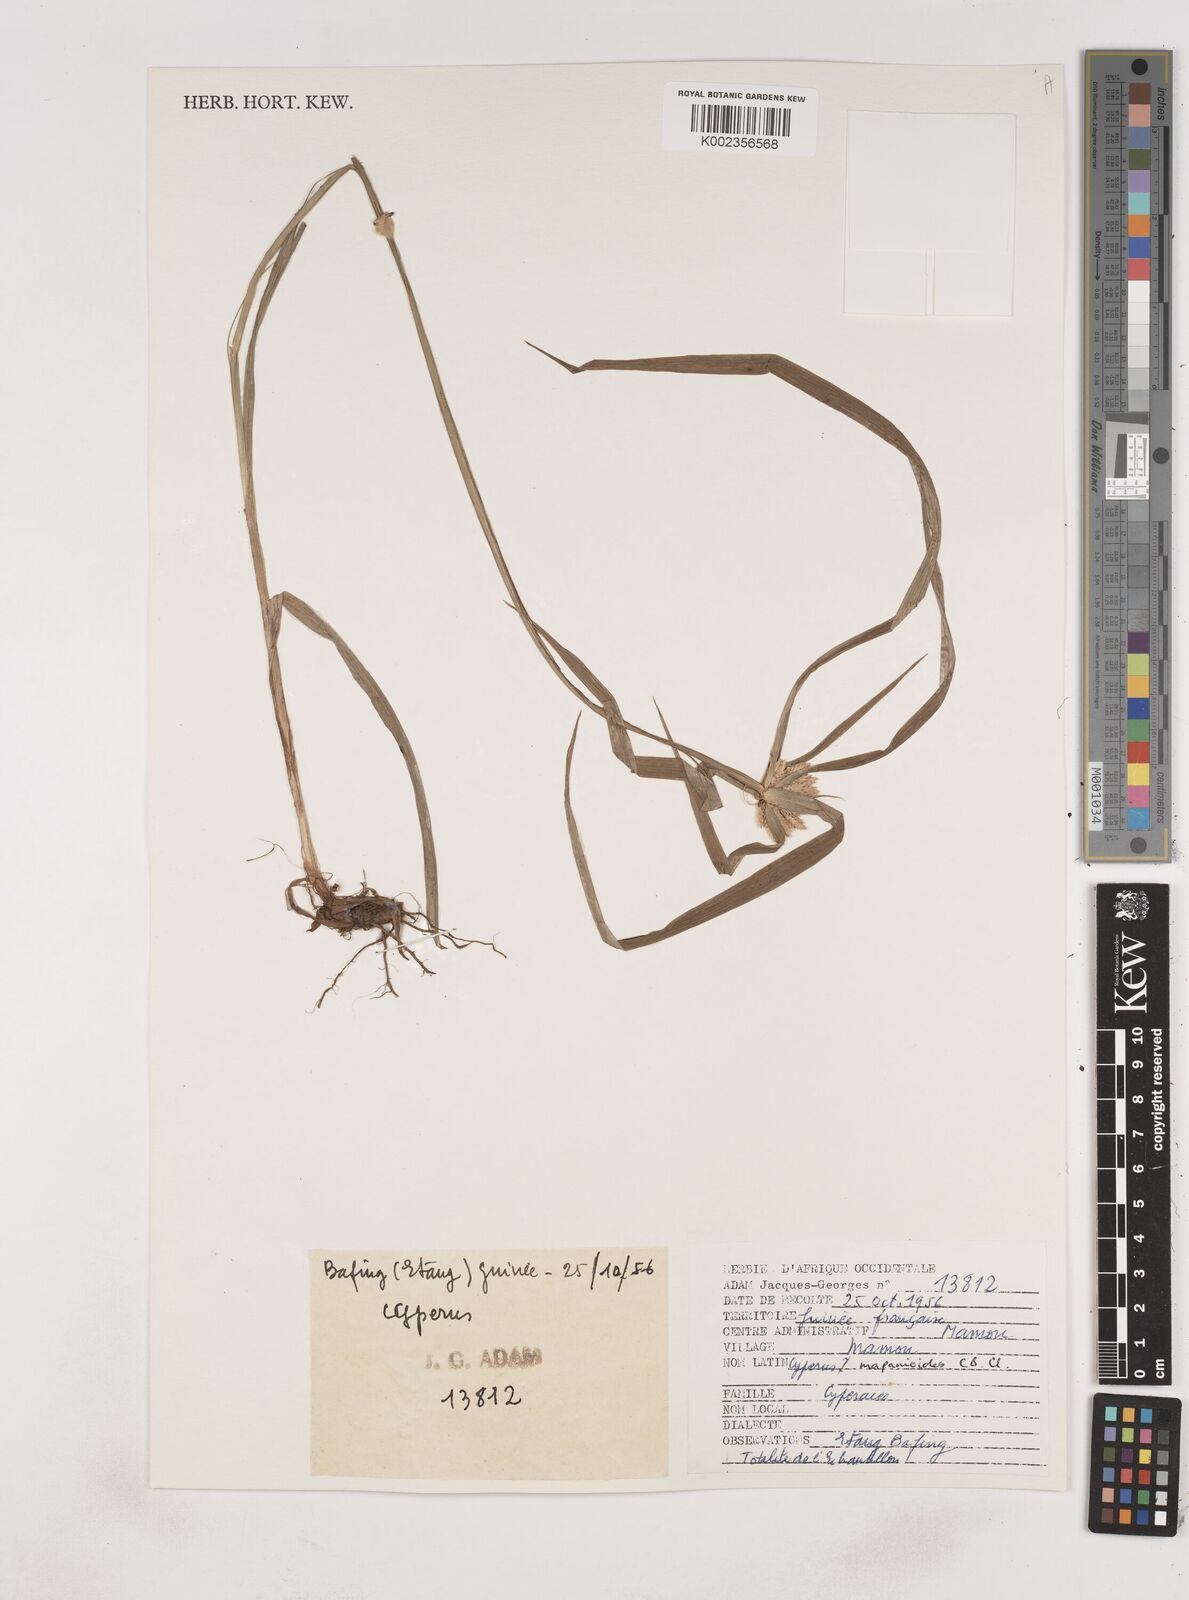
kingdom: Plantae
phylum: Tracheophyta
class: Liliopsida
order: Poales
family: Cyperaceae
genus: Cyperus
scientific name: Cyperus mapanioides
